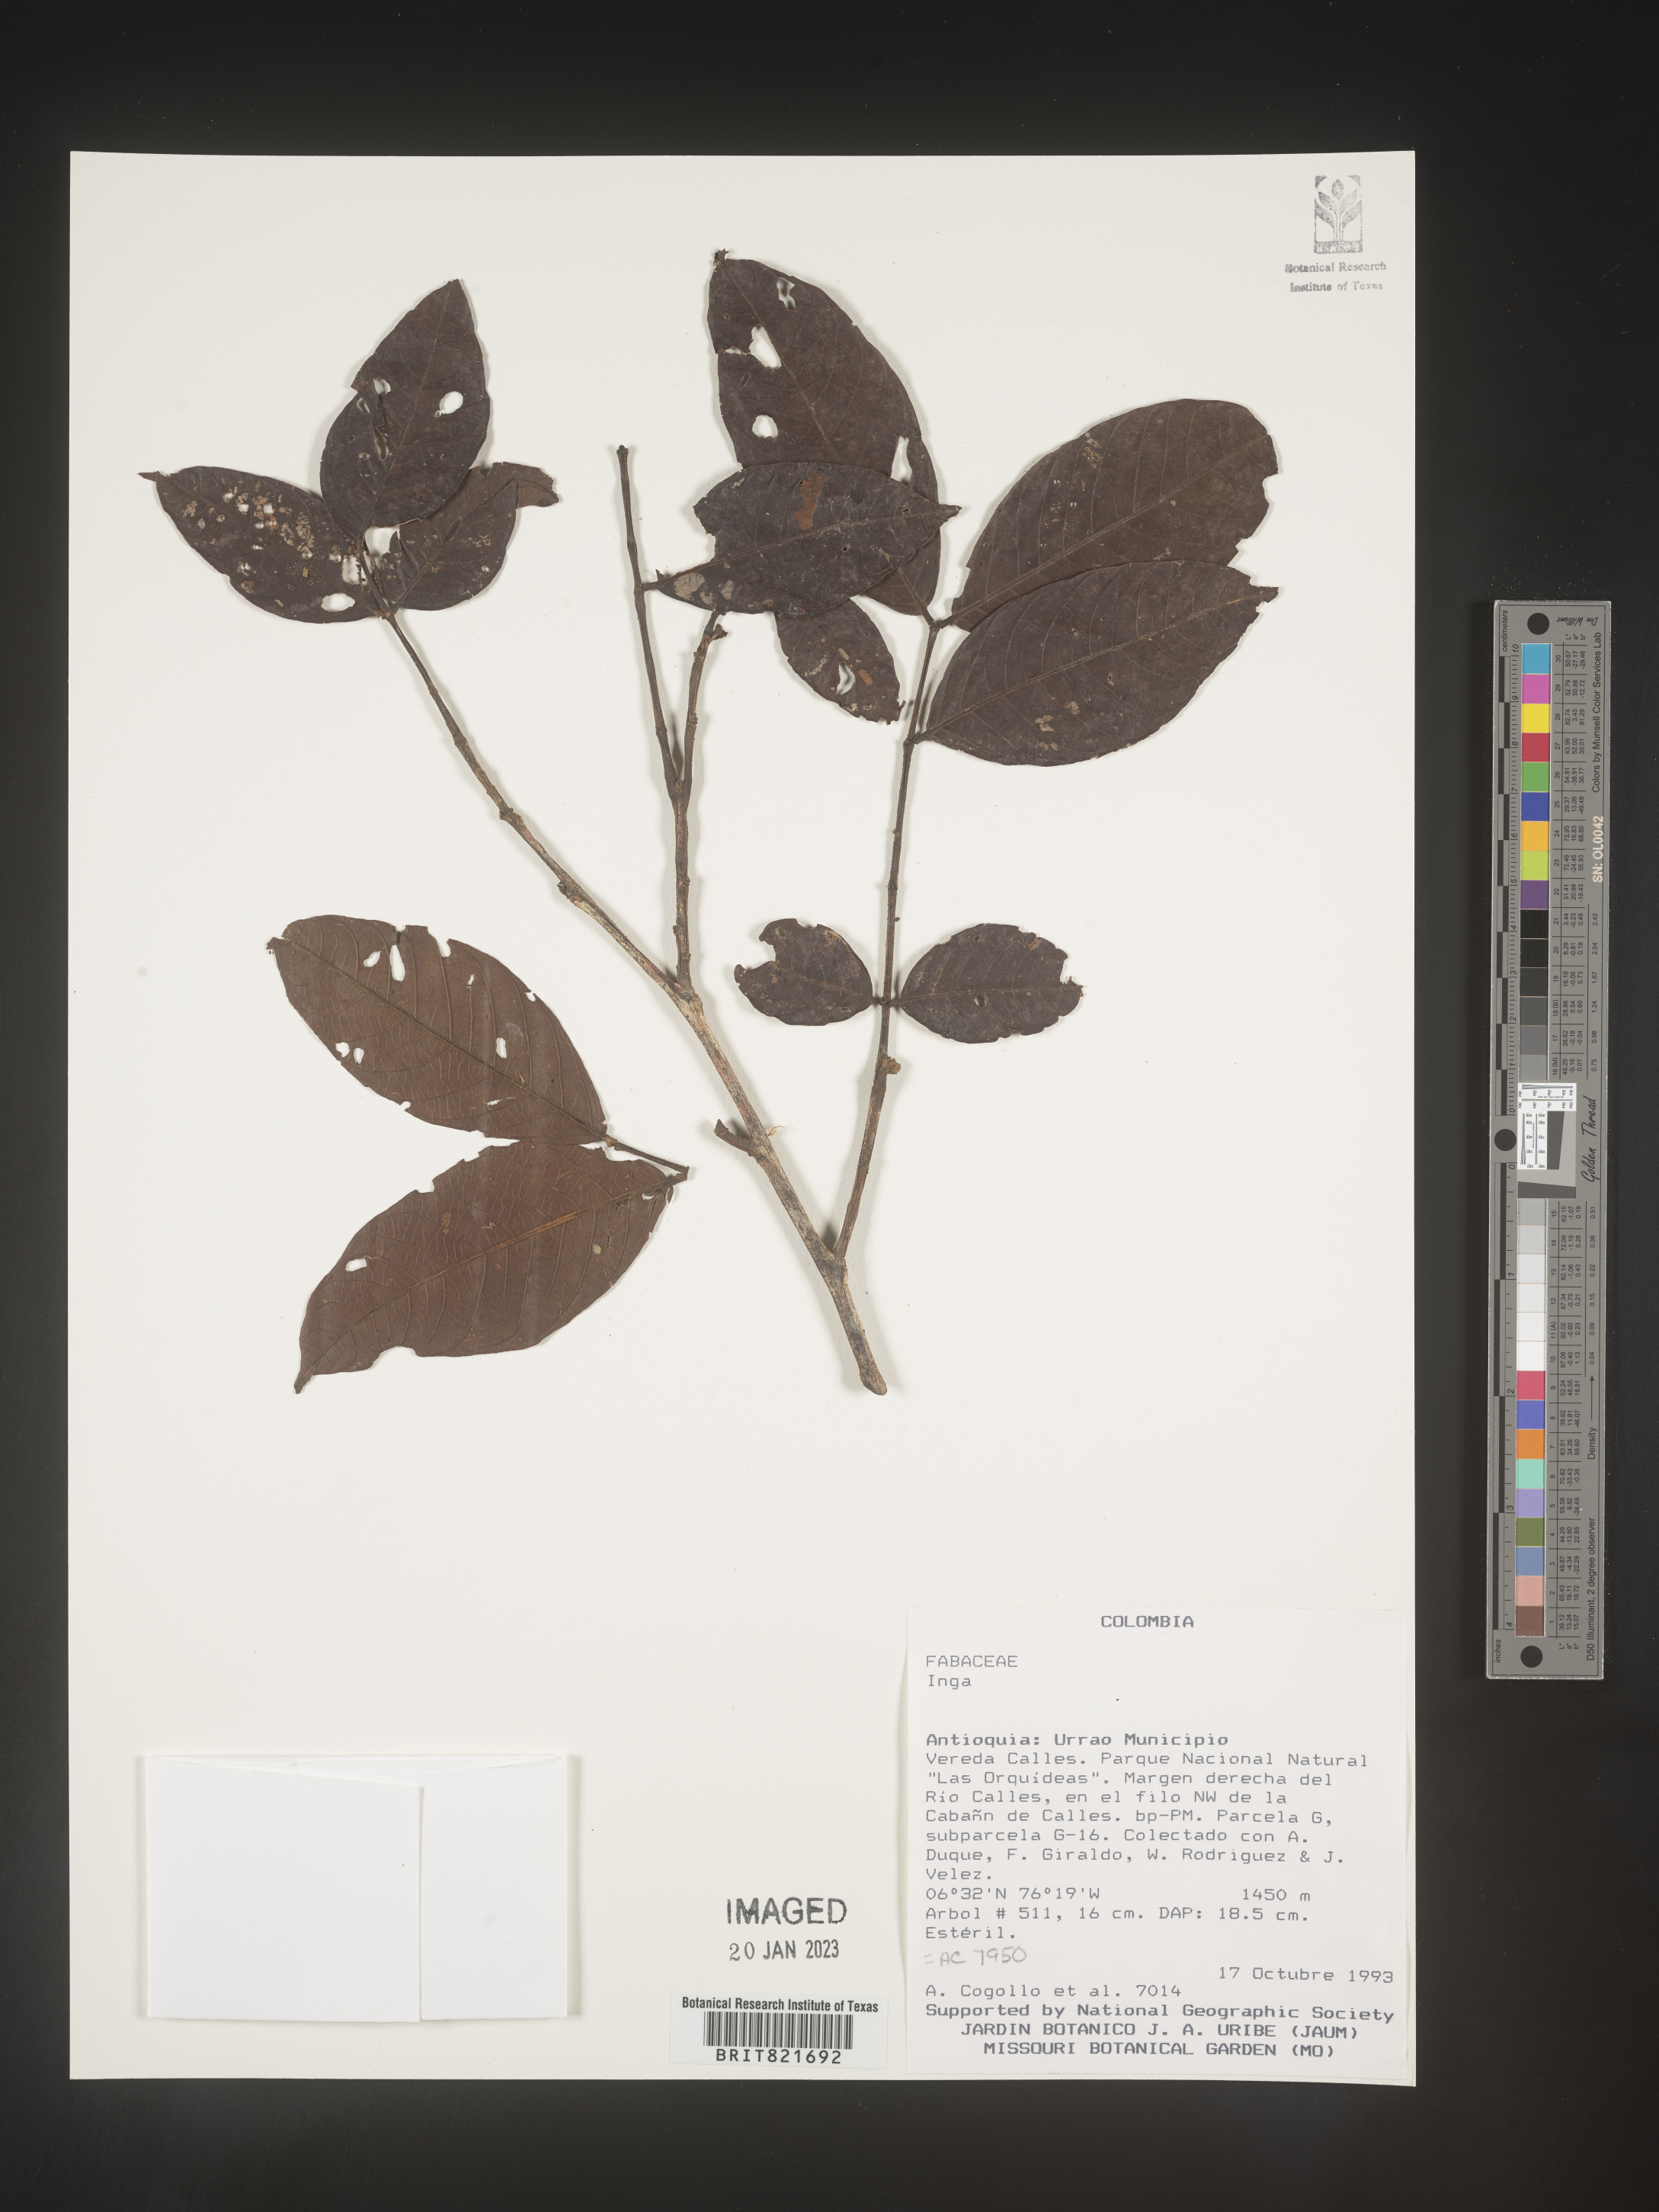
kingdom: Plantae
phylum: Tracheophyta
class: Magnoliopsida
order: Fabales
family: Fabaceae
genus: Inga
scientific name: Inga
